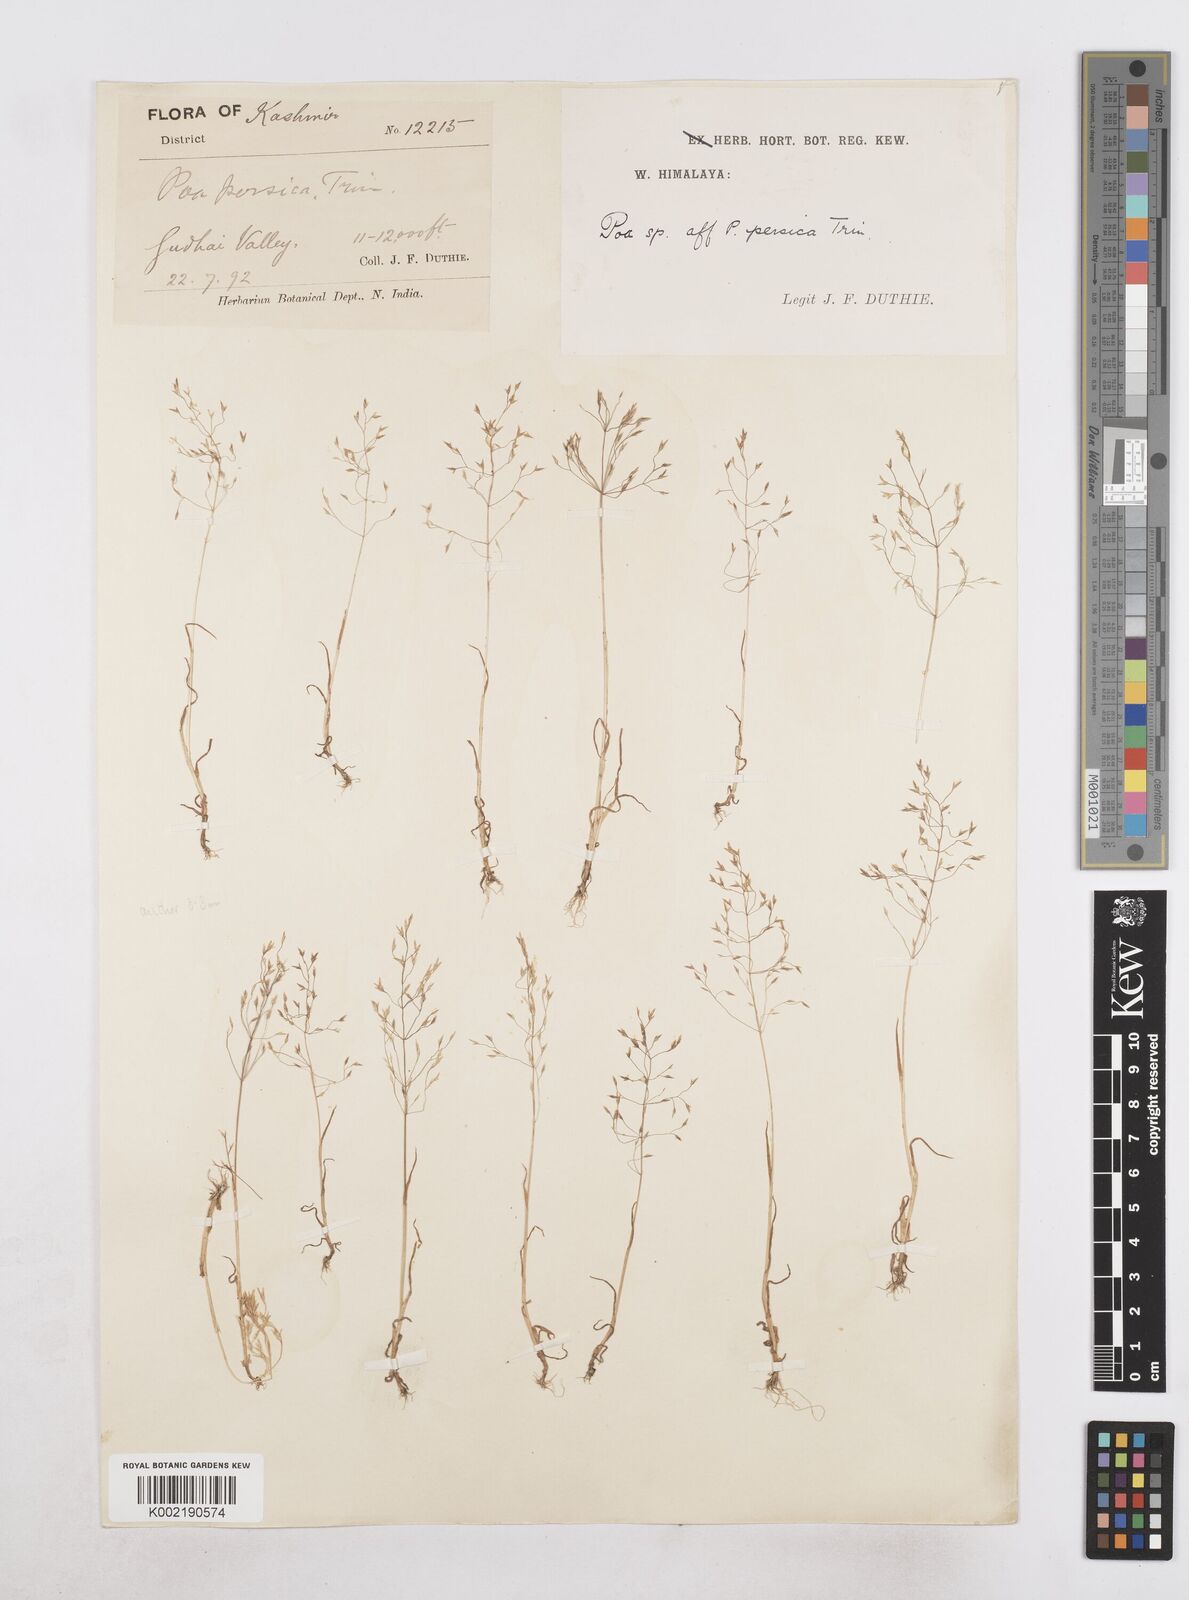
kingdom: Plantae
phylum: Tracheophyta
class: Liliopsida
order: Poales
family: Poaceae
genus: Poa
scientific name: Poa diaphora
